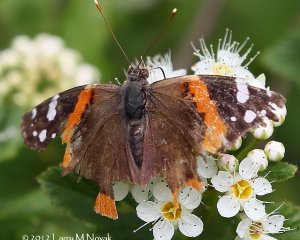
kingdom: Animalia
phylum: Arthropoda
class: Insecta
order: Lepidoptera
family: Nymphalidae
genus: Vanessa
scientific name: Vanessa atalanta
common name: Red Admiral
